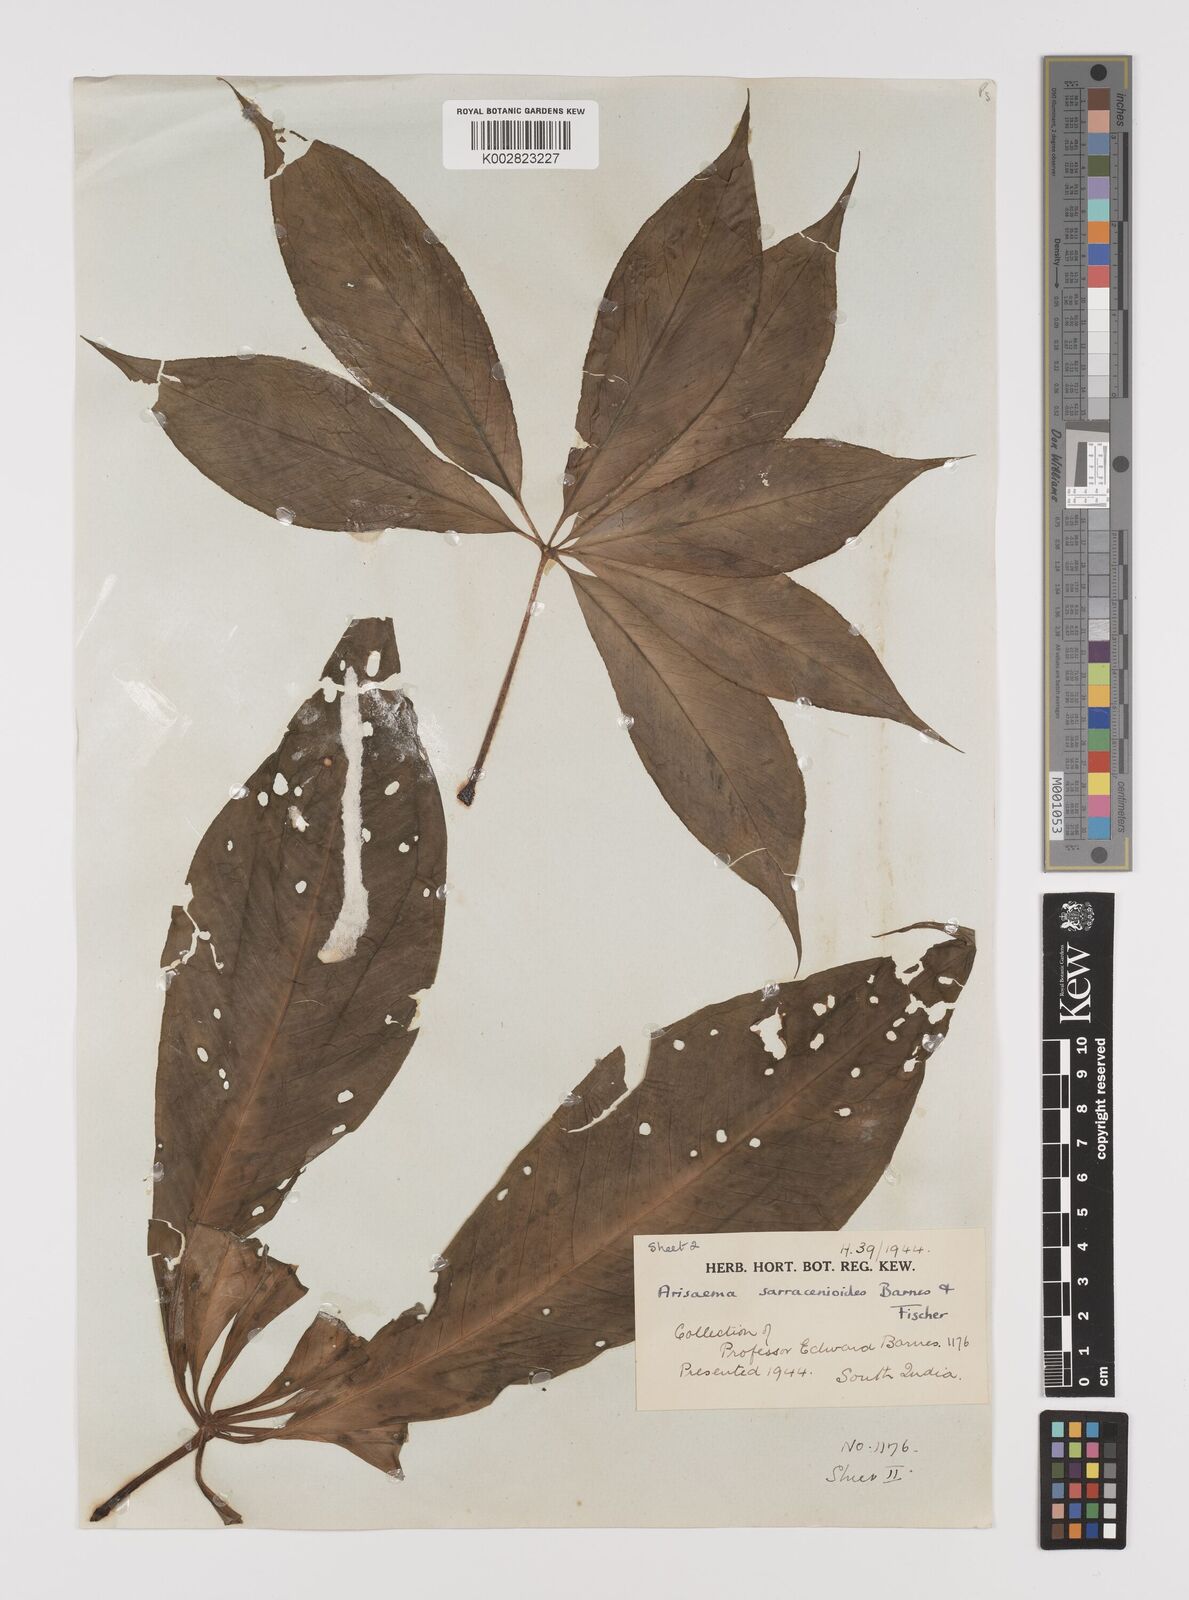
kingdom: Plantae
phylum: Tracheophyta
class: Liliopsida
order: Alismatales
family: Araceae
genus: Arisaema
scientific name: Arisaema sarracenioides
